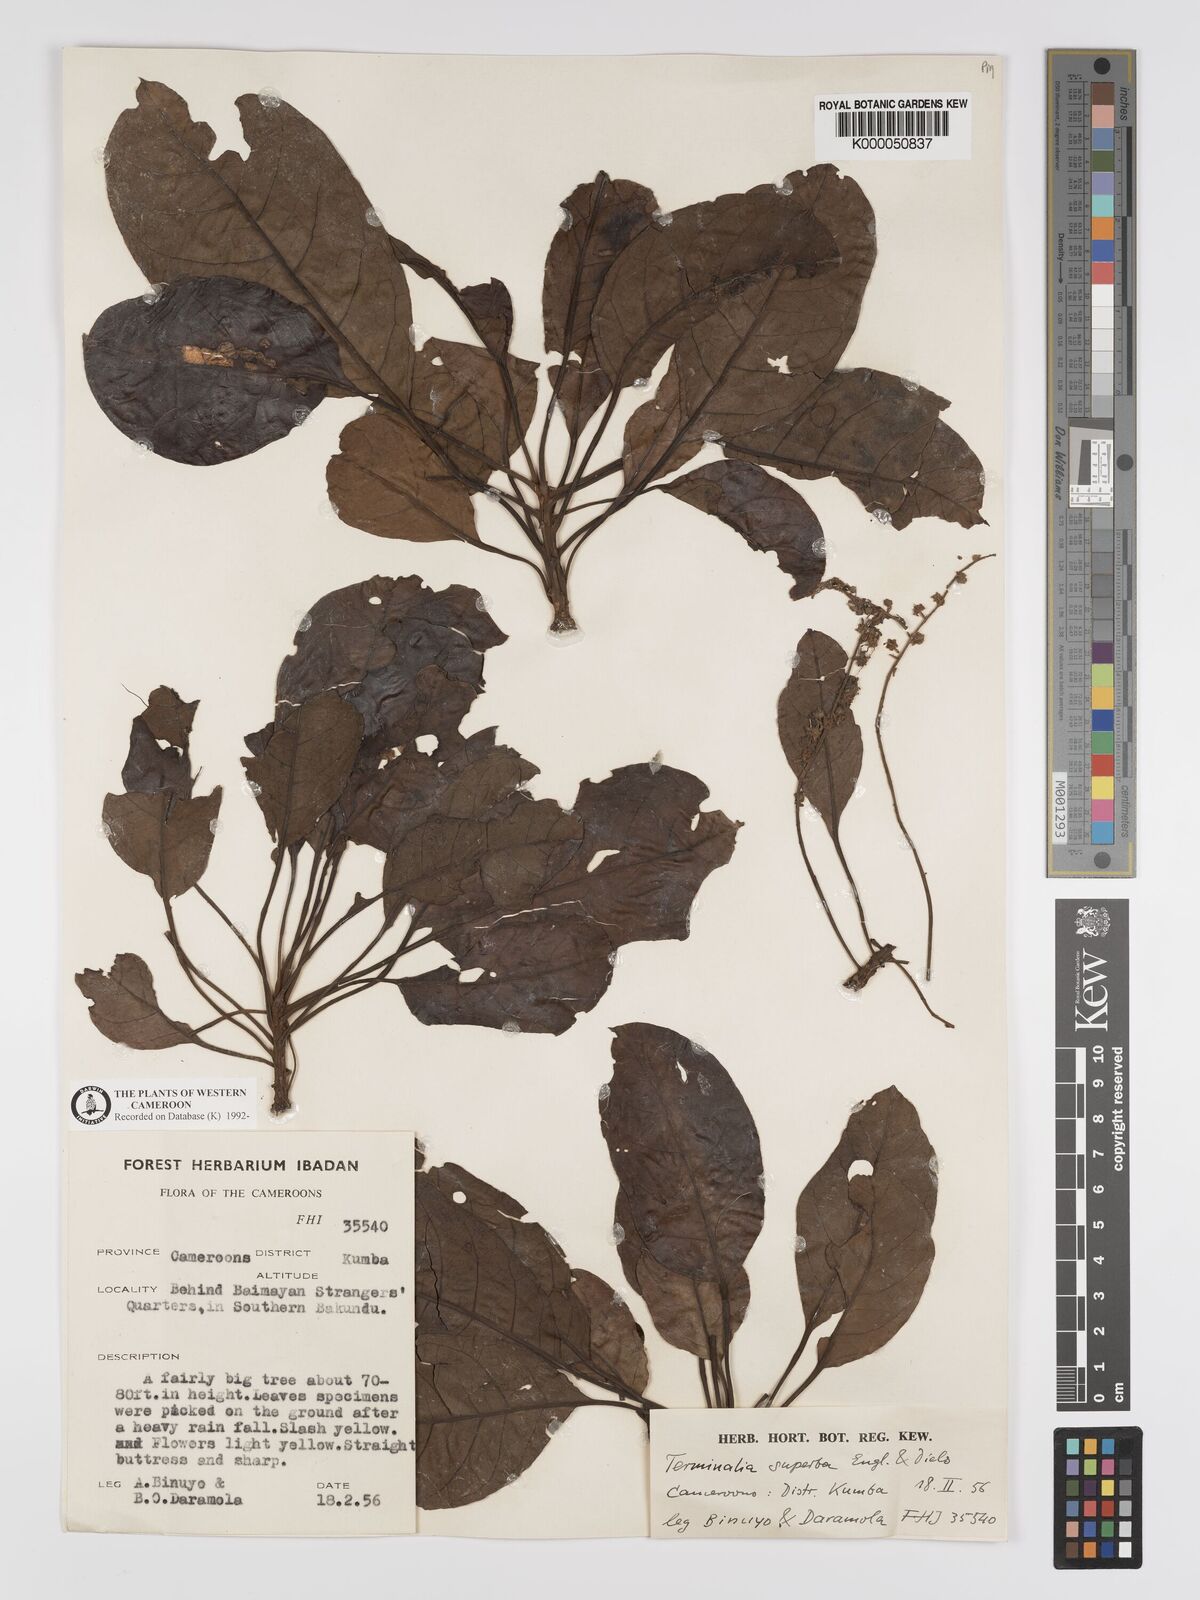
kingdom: Plantae
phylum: Tracheophyta
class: Magnoliopsida
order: Myrtales
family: Combretaceae
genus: Terminalia
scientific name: Terminalia superba
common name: White afara
